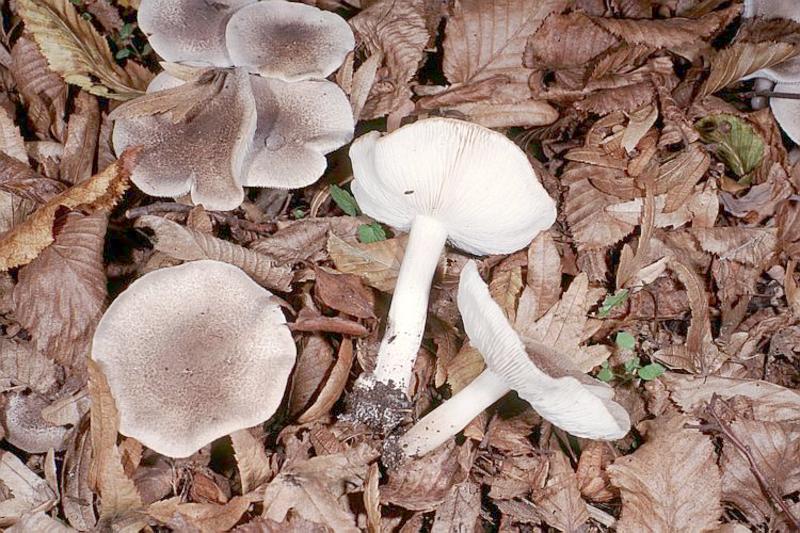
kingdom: Fungi
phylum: Basidiomycota
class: Agaricomycetes
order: Agaricales
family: Tricholomataceae
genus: Tricholoma
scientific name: Tricholoma scalpturatum
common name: Yellowing knight
